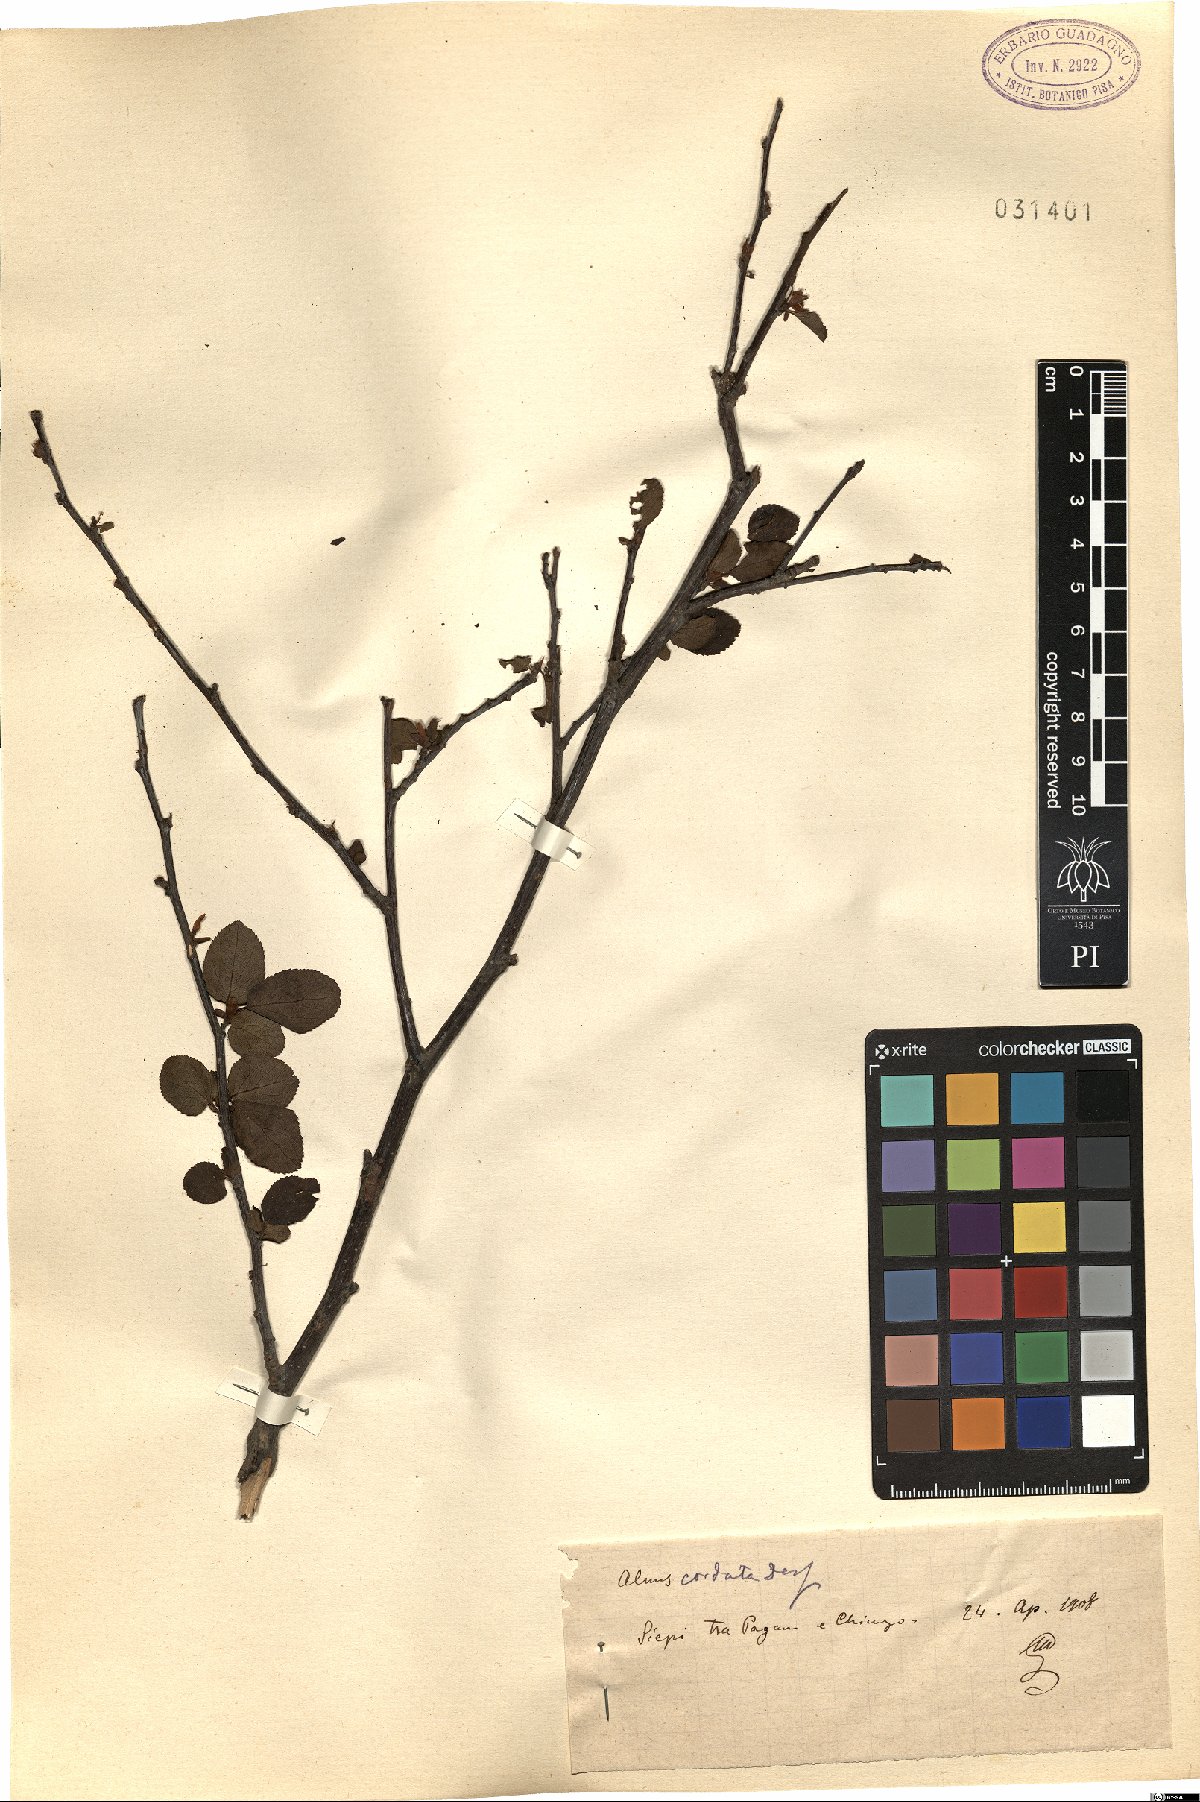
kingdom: Plantae
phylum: Tracheophyta
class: Magnoliopsida
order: Fagales
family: Betulaceae
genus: Alnus
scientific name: Alnus cordata
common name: Italian alder
